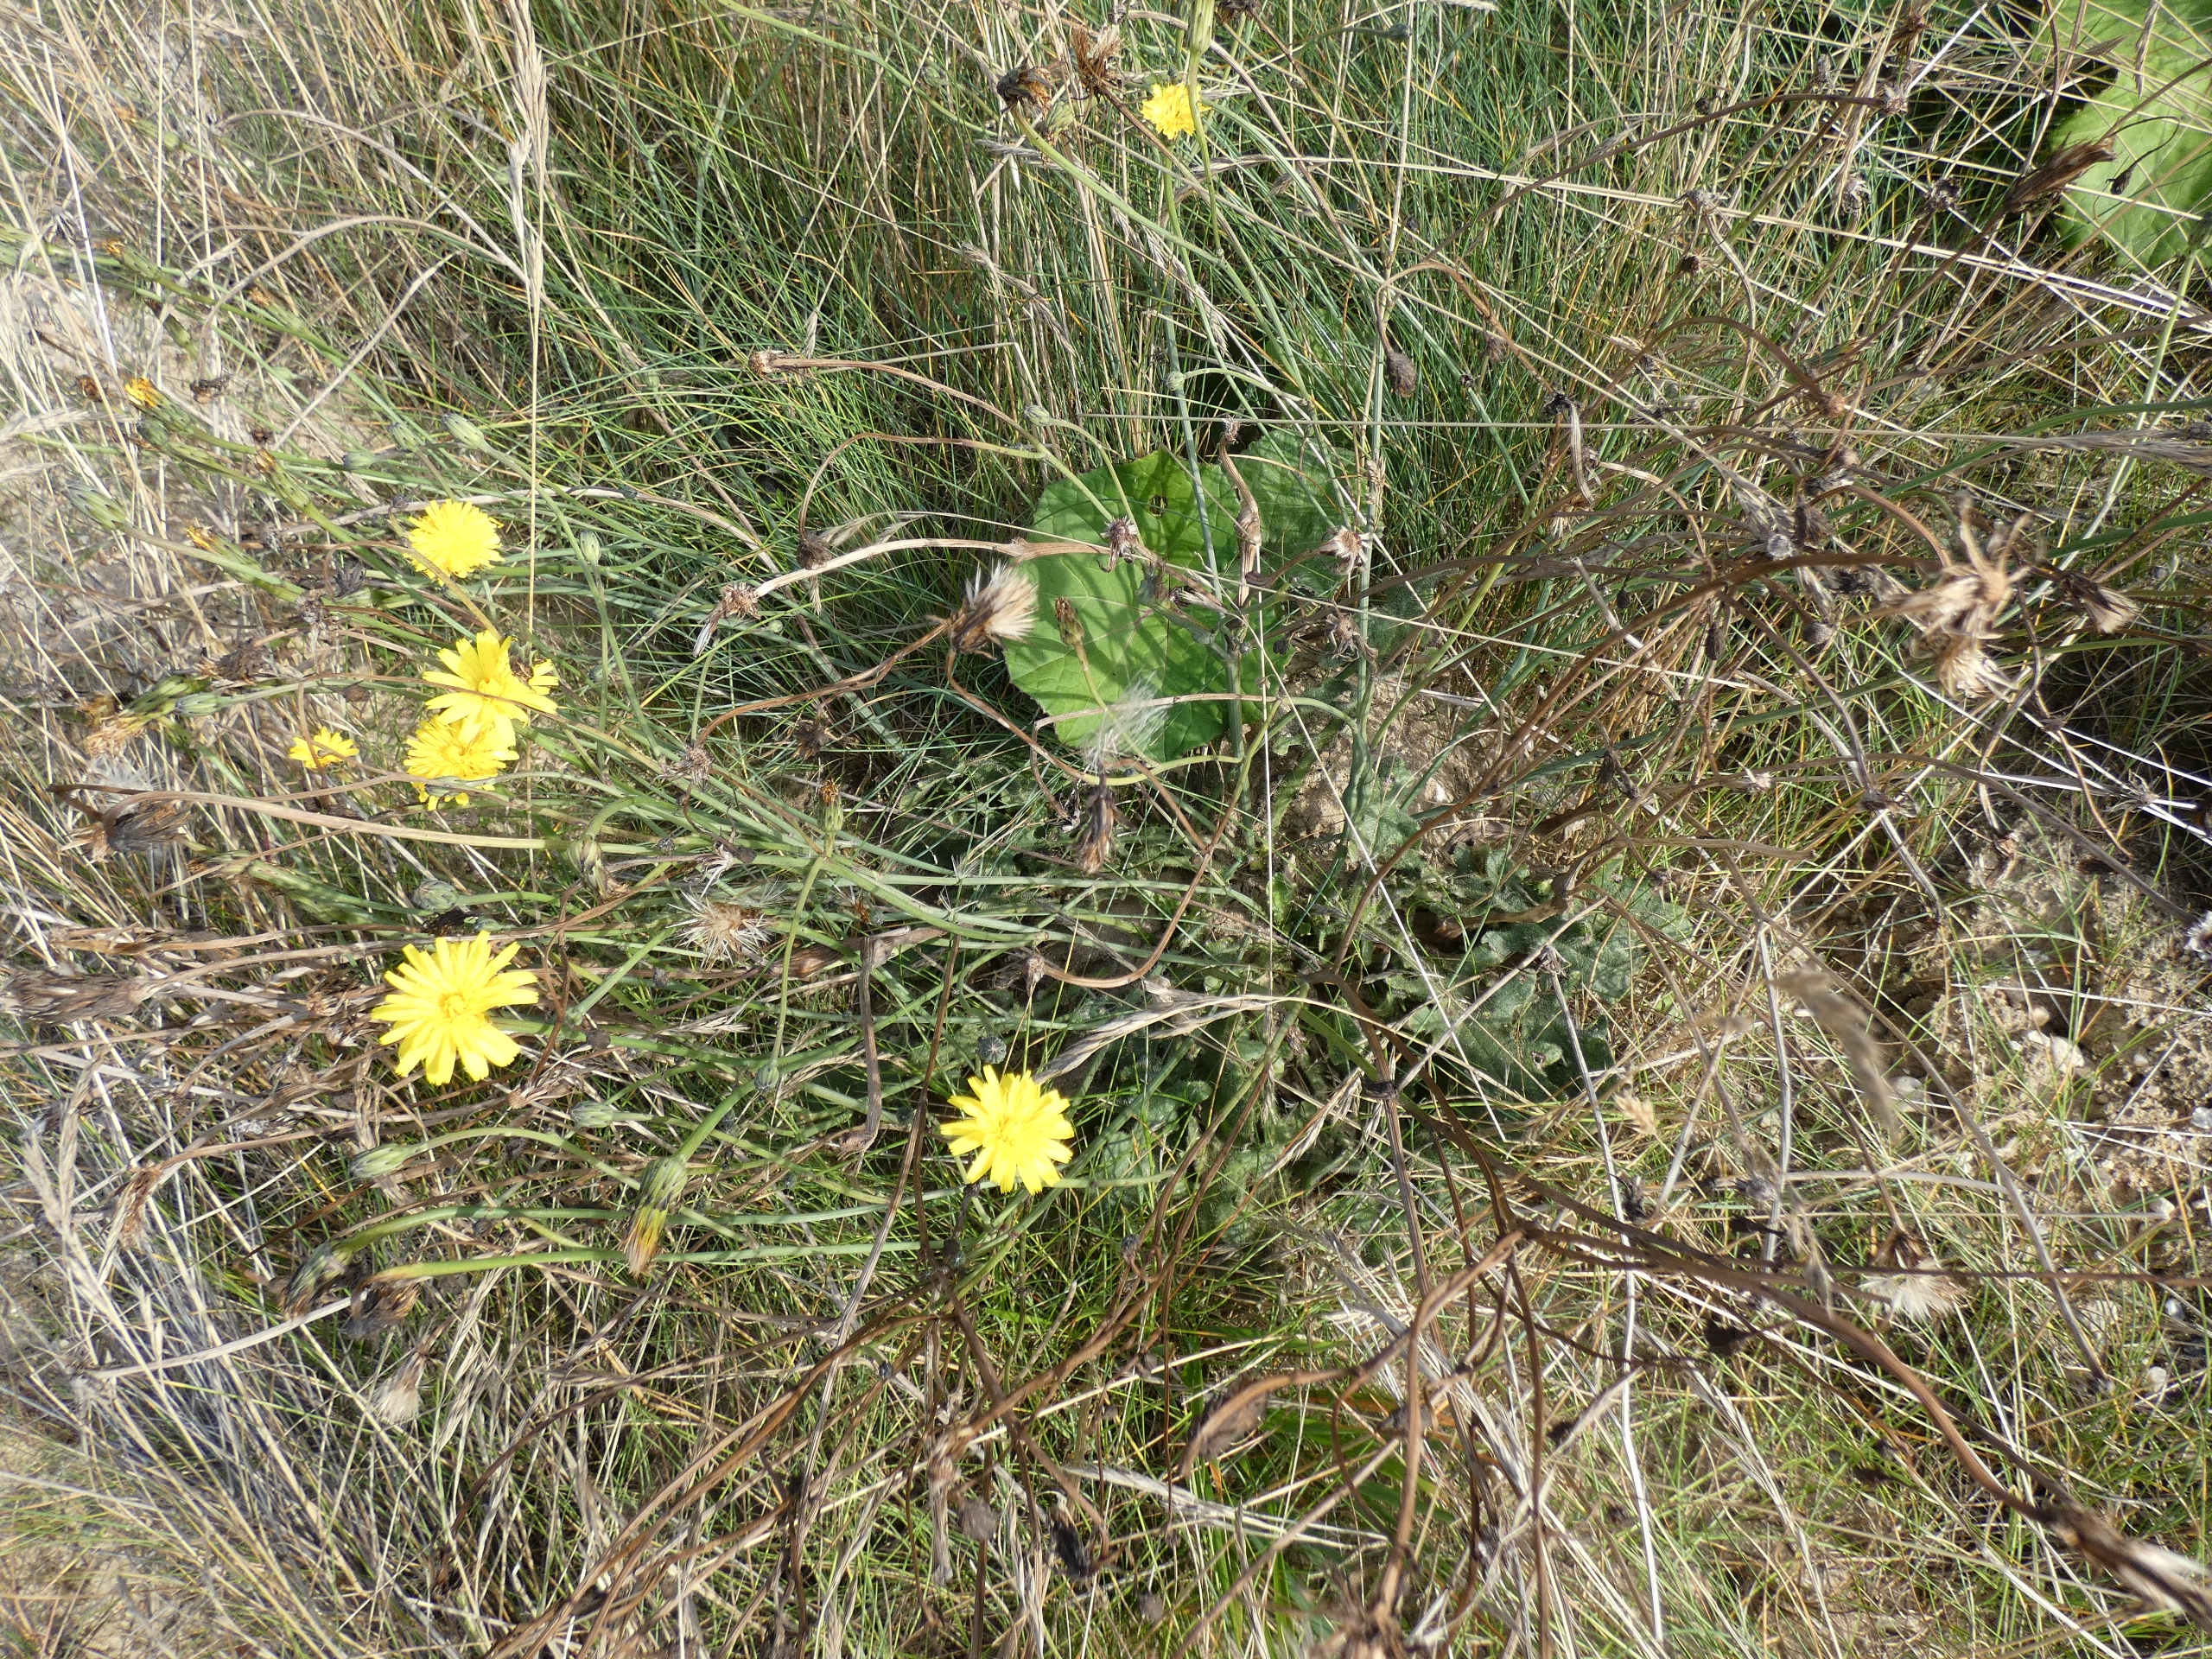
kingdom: Plantae
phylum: Tracheophyta
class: Magnoliopsida
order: Asterales
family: Asteraceae
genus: Hypochaeris
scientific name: Hypochaeris radicata
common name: Almindelig kongepen
